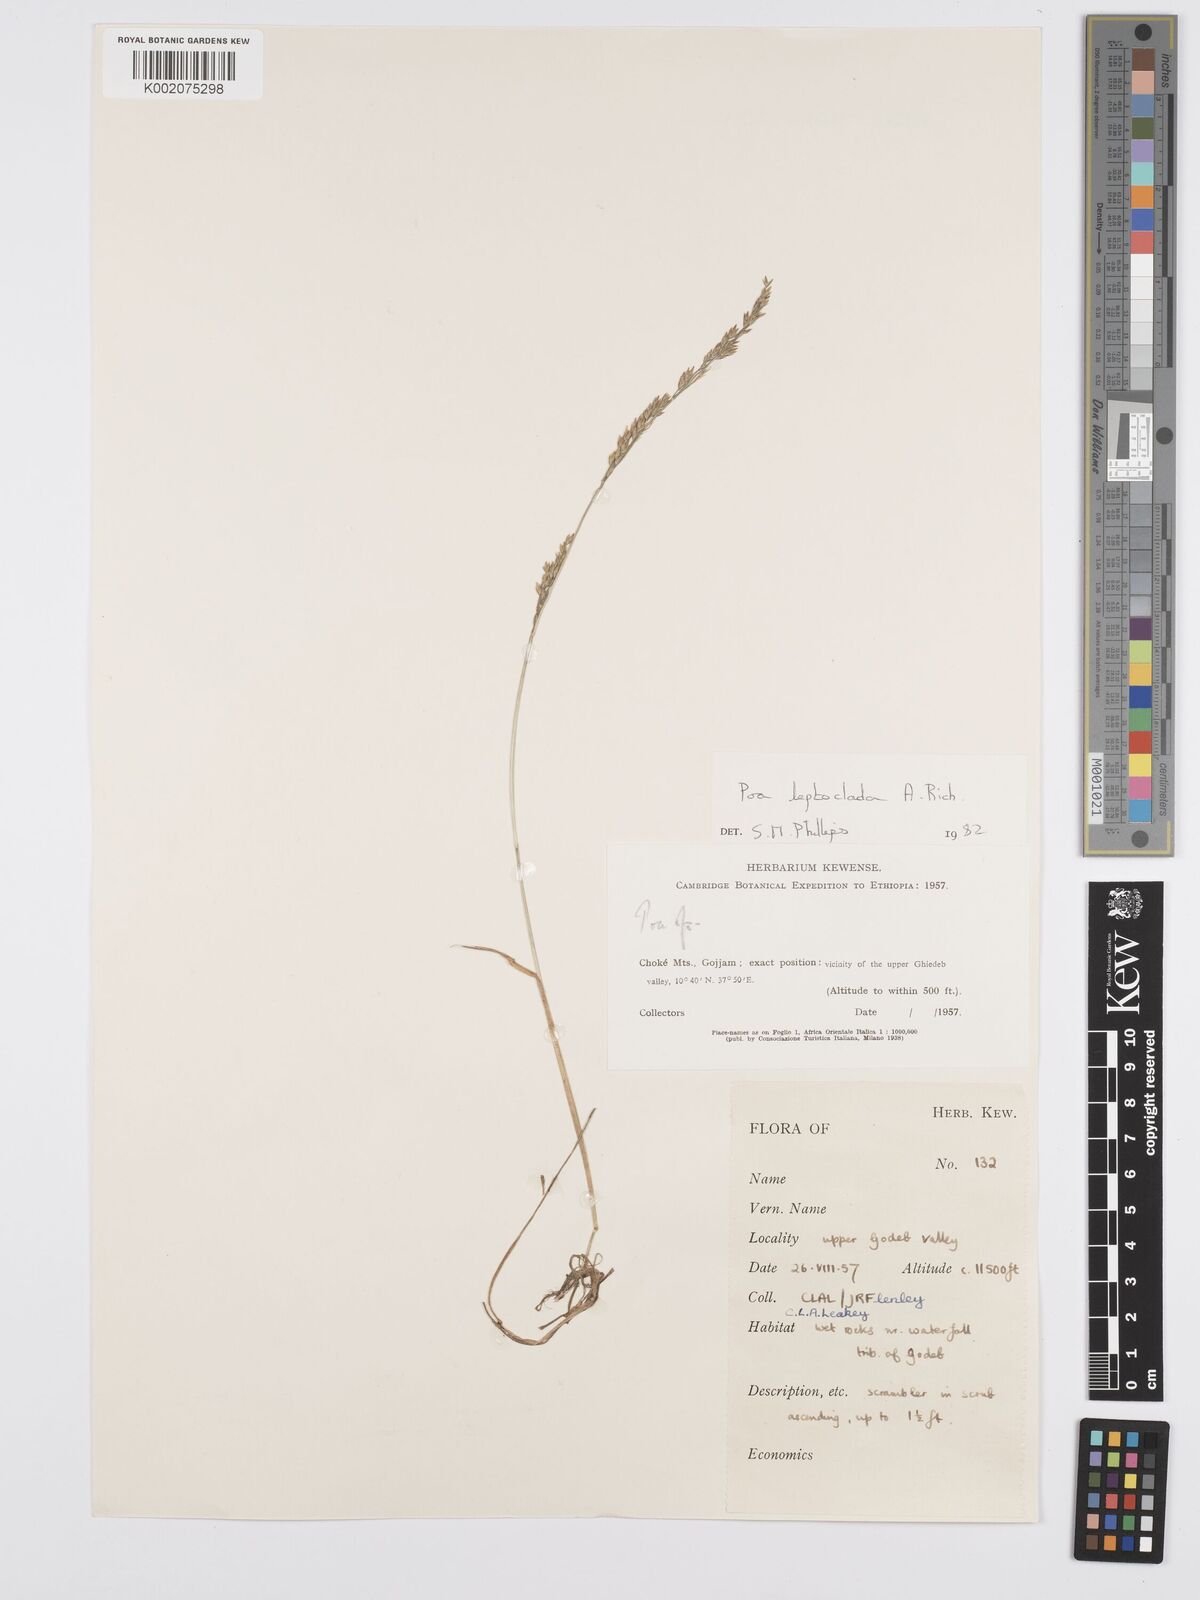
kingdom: Plantae
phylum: Tracheophyta
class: Liliopsida
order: Poales
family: Poaceae
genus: Poa
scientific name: Poa leptoclada
